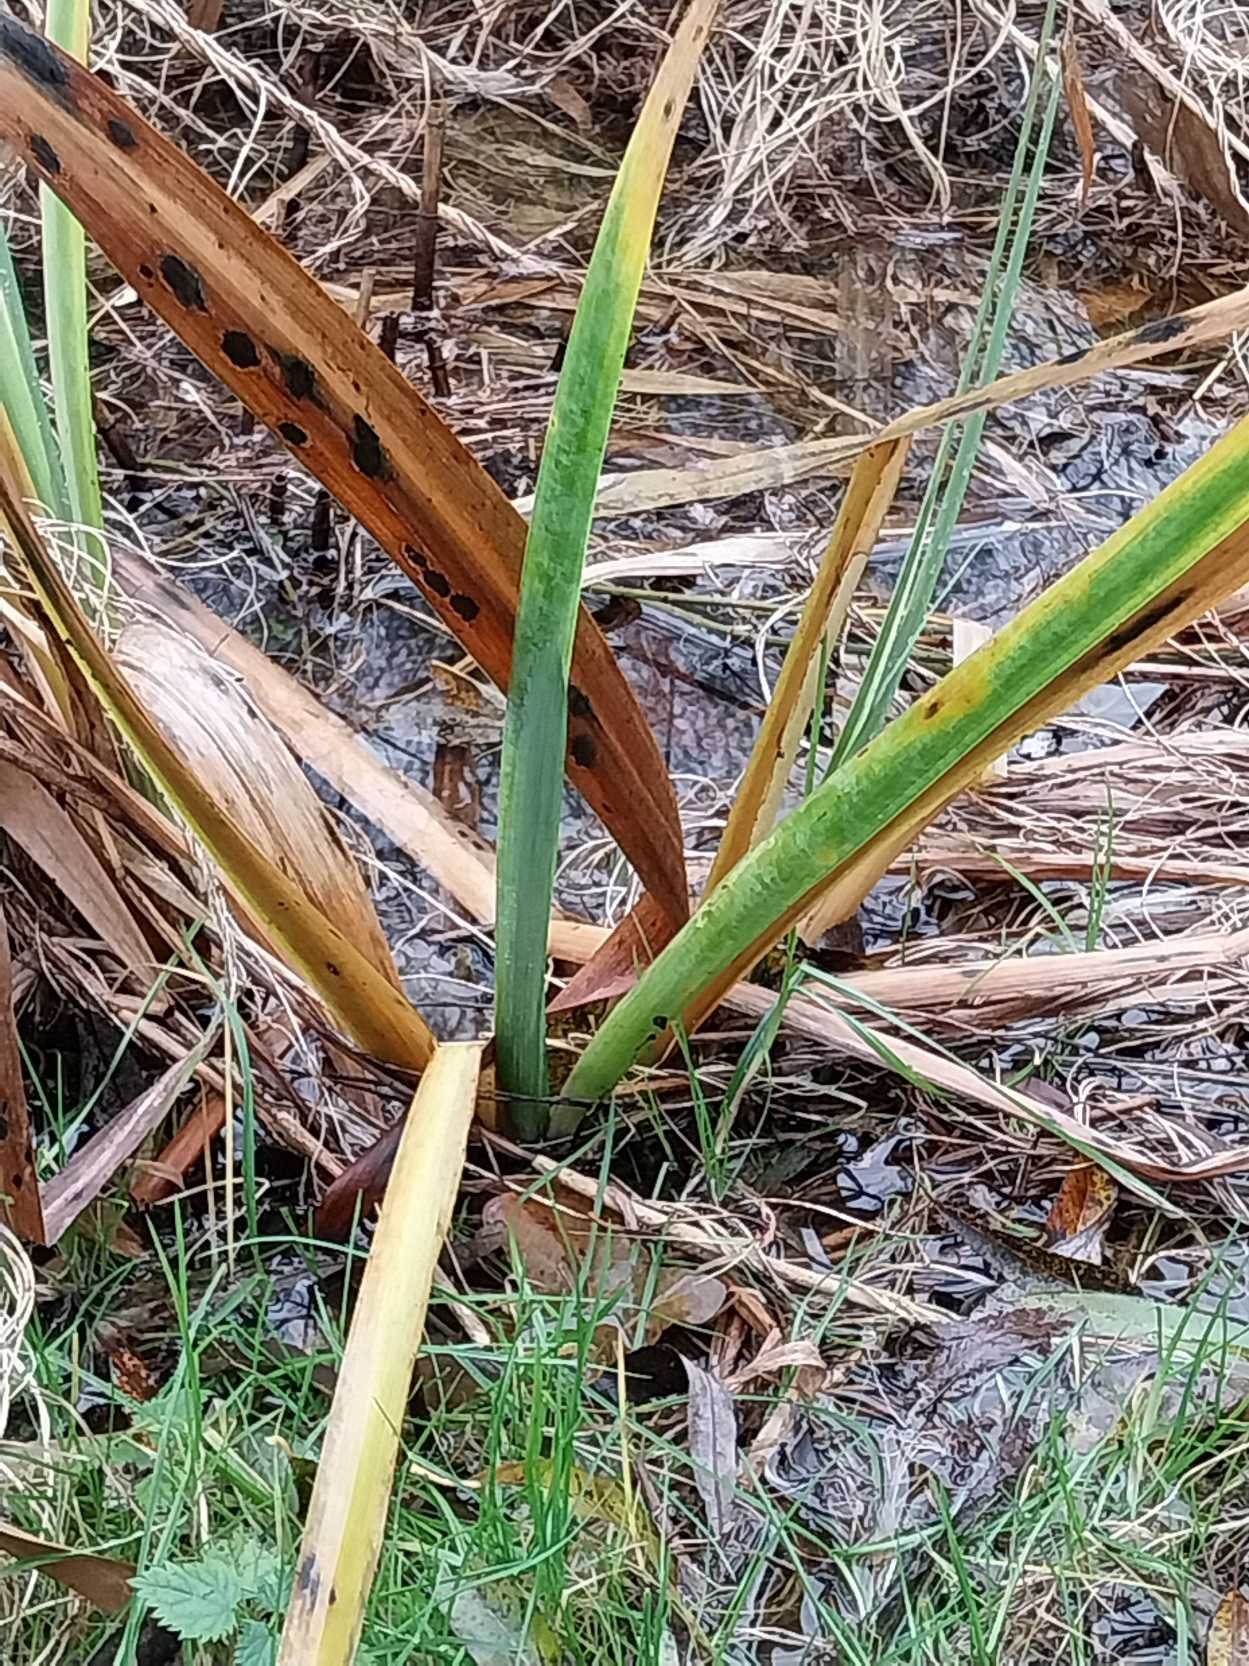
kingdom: Plantae
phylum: Tracheophyta
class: Liliopsida
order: Asparagales
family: Iridaceae
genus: Iris
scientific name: Iris pseudacorus
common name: Gul iris
